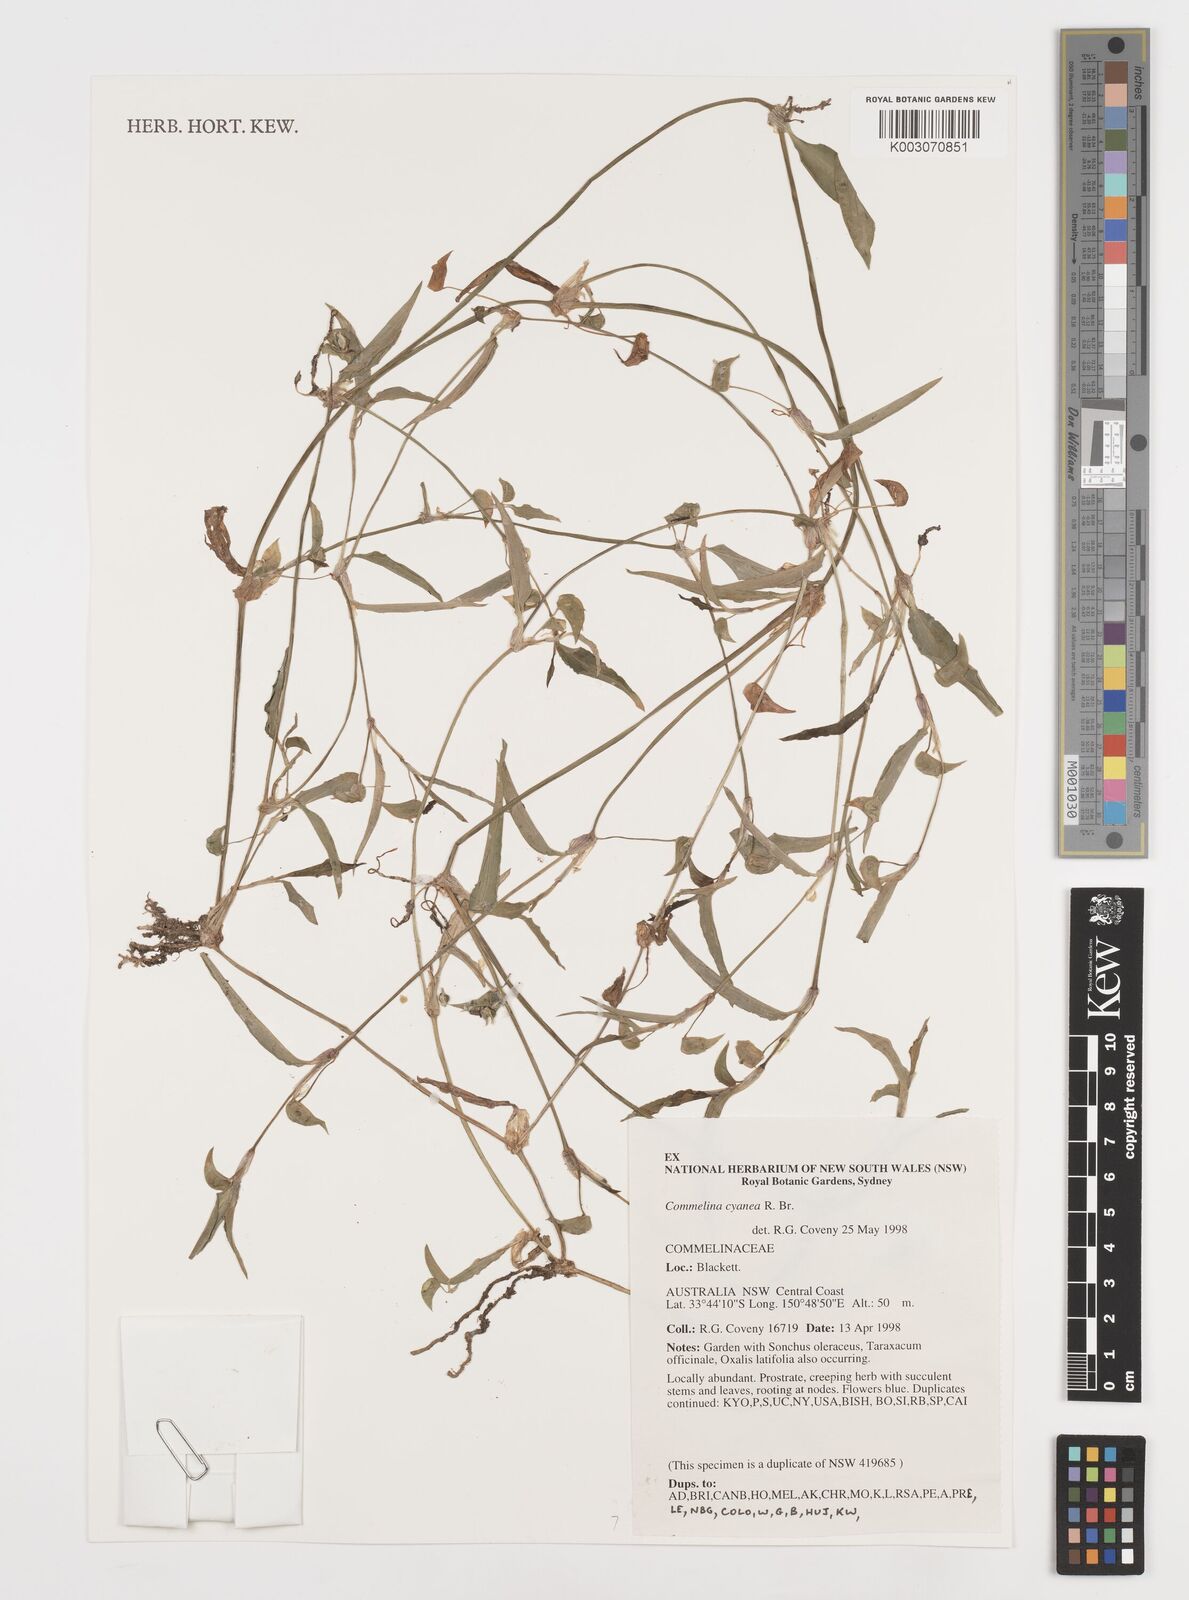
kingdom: Plantae
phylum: Tracheophyta
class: Liliopsida
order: Commelinales
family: Commelinaceae
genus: Commelina
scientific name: Commelina cyanea
